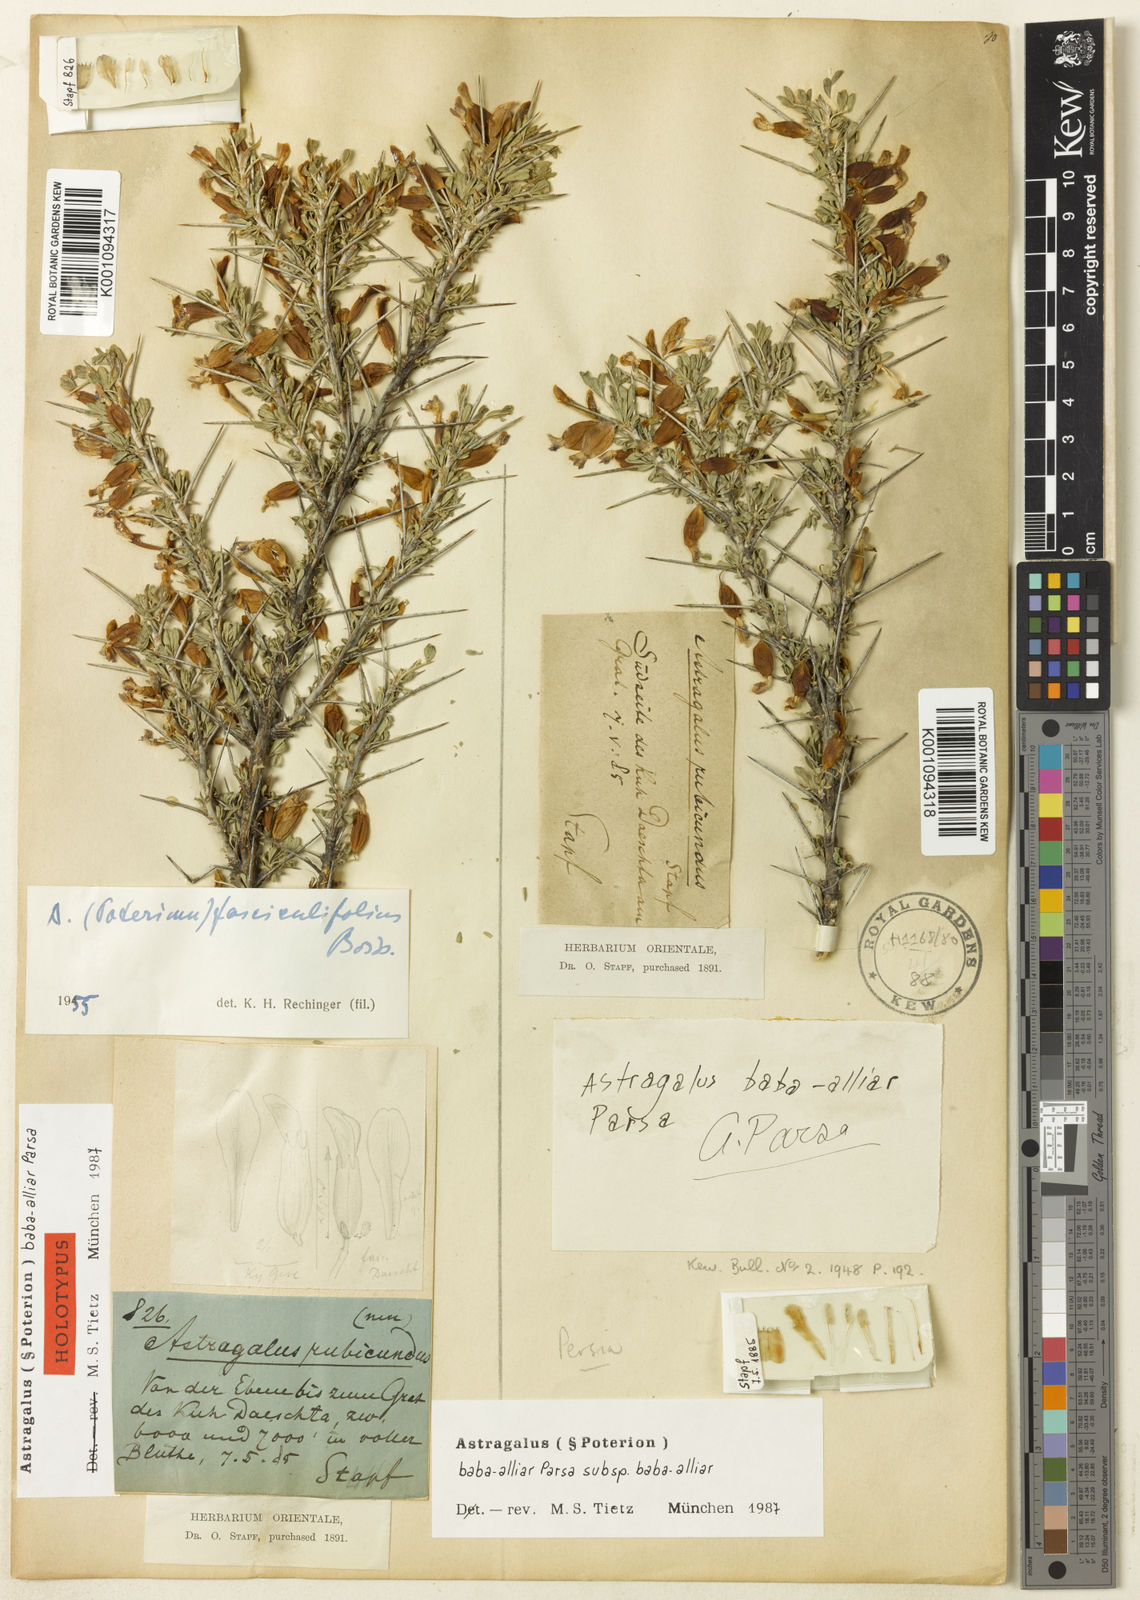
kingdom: Plantae
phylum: Tracheophyta
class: Magnoliopsida
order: Fabales
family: Fabaceae
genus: Astragalus
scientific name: Astragalus baba-alliar
